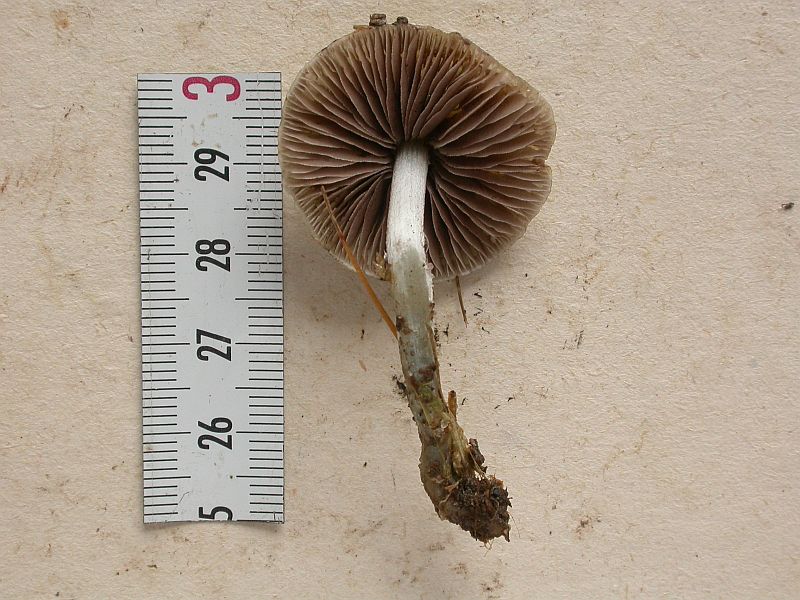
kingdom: Fungi
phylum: Basidiomycota
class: Agaricomycetes
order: Agaricales
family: Strophariaceae
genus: Stropharia
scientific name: Stropharia aeruginosa
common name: spanskgrøn bredblad
